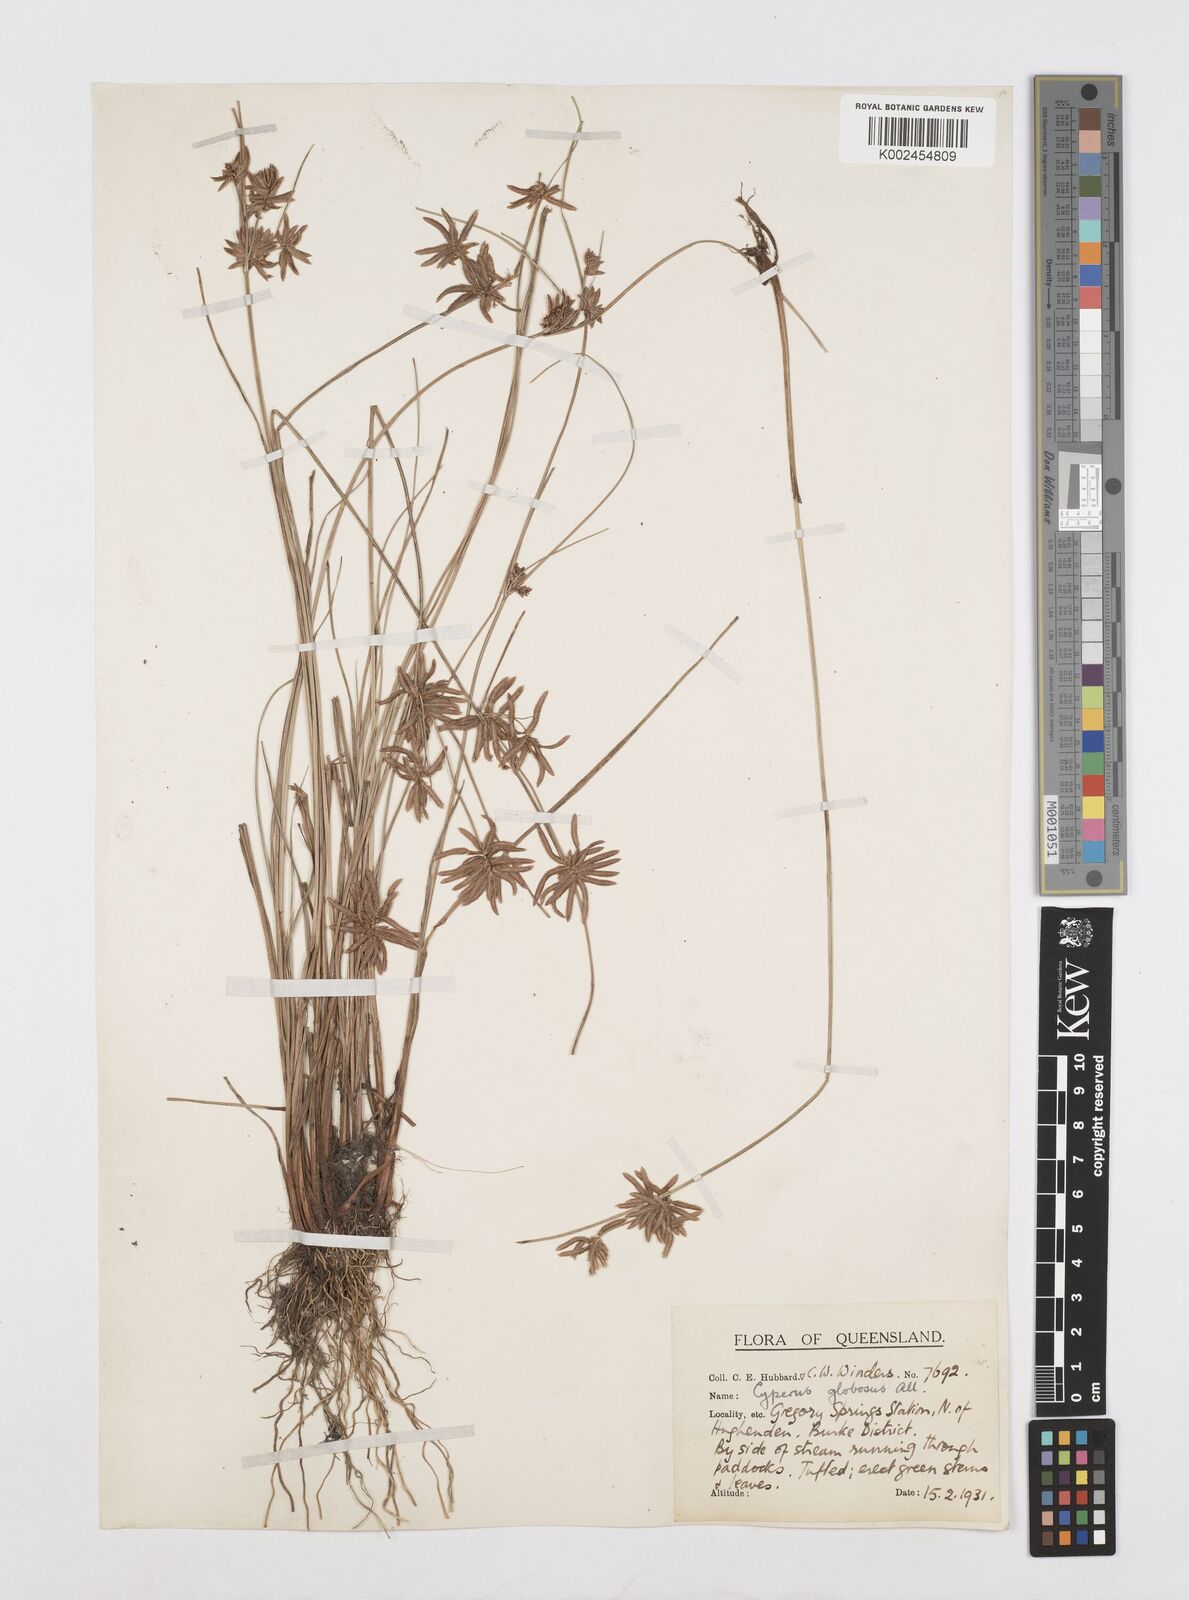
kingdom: Plantae
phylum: Tracheophyta
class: Liliopsida
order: Poales
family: Cyperaceae
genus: Cyperus
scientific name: Cyperus flavidus
